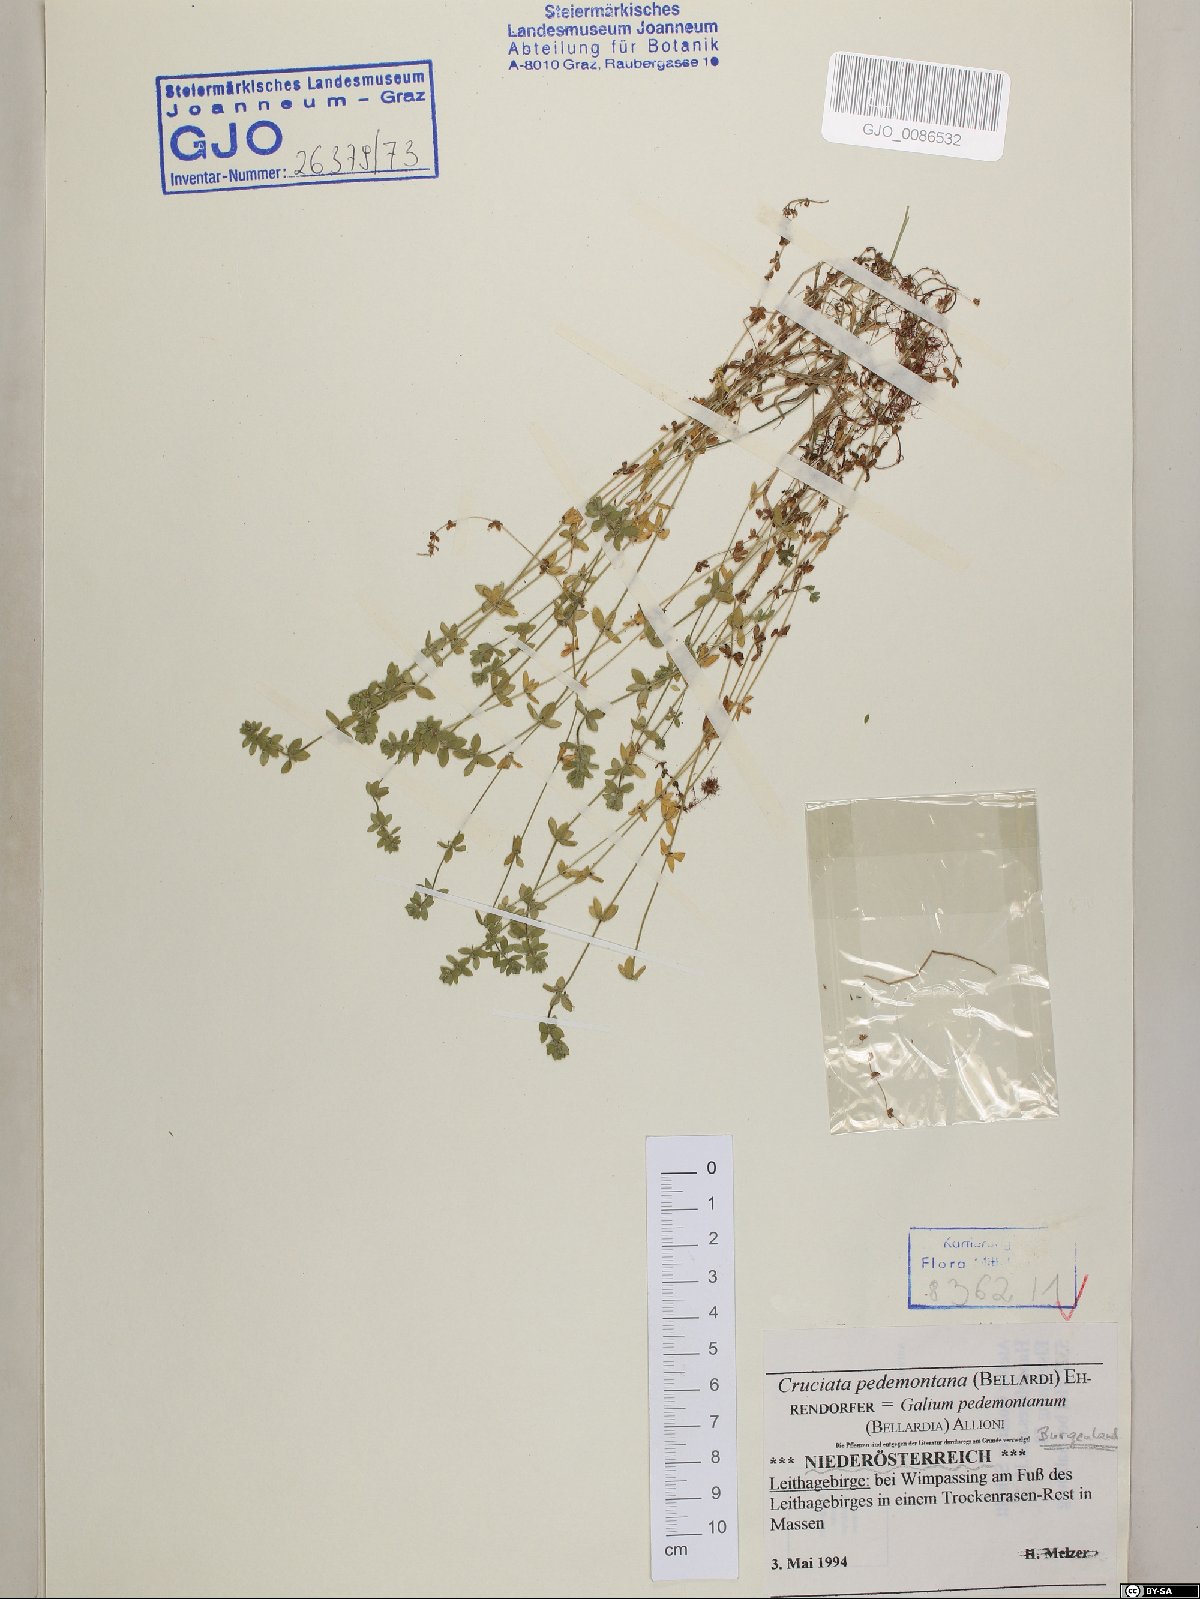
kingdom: Plantae
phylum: Tracheophyta
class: Magnoliopsida
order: Gentianales
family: Rubiaceae
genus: Cruciata
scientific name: Cruciata pedemontana
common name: Piedmont bedstraw
